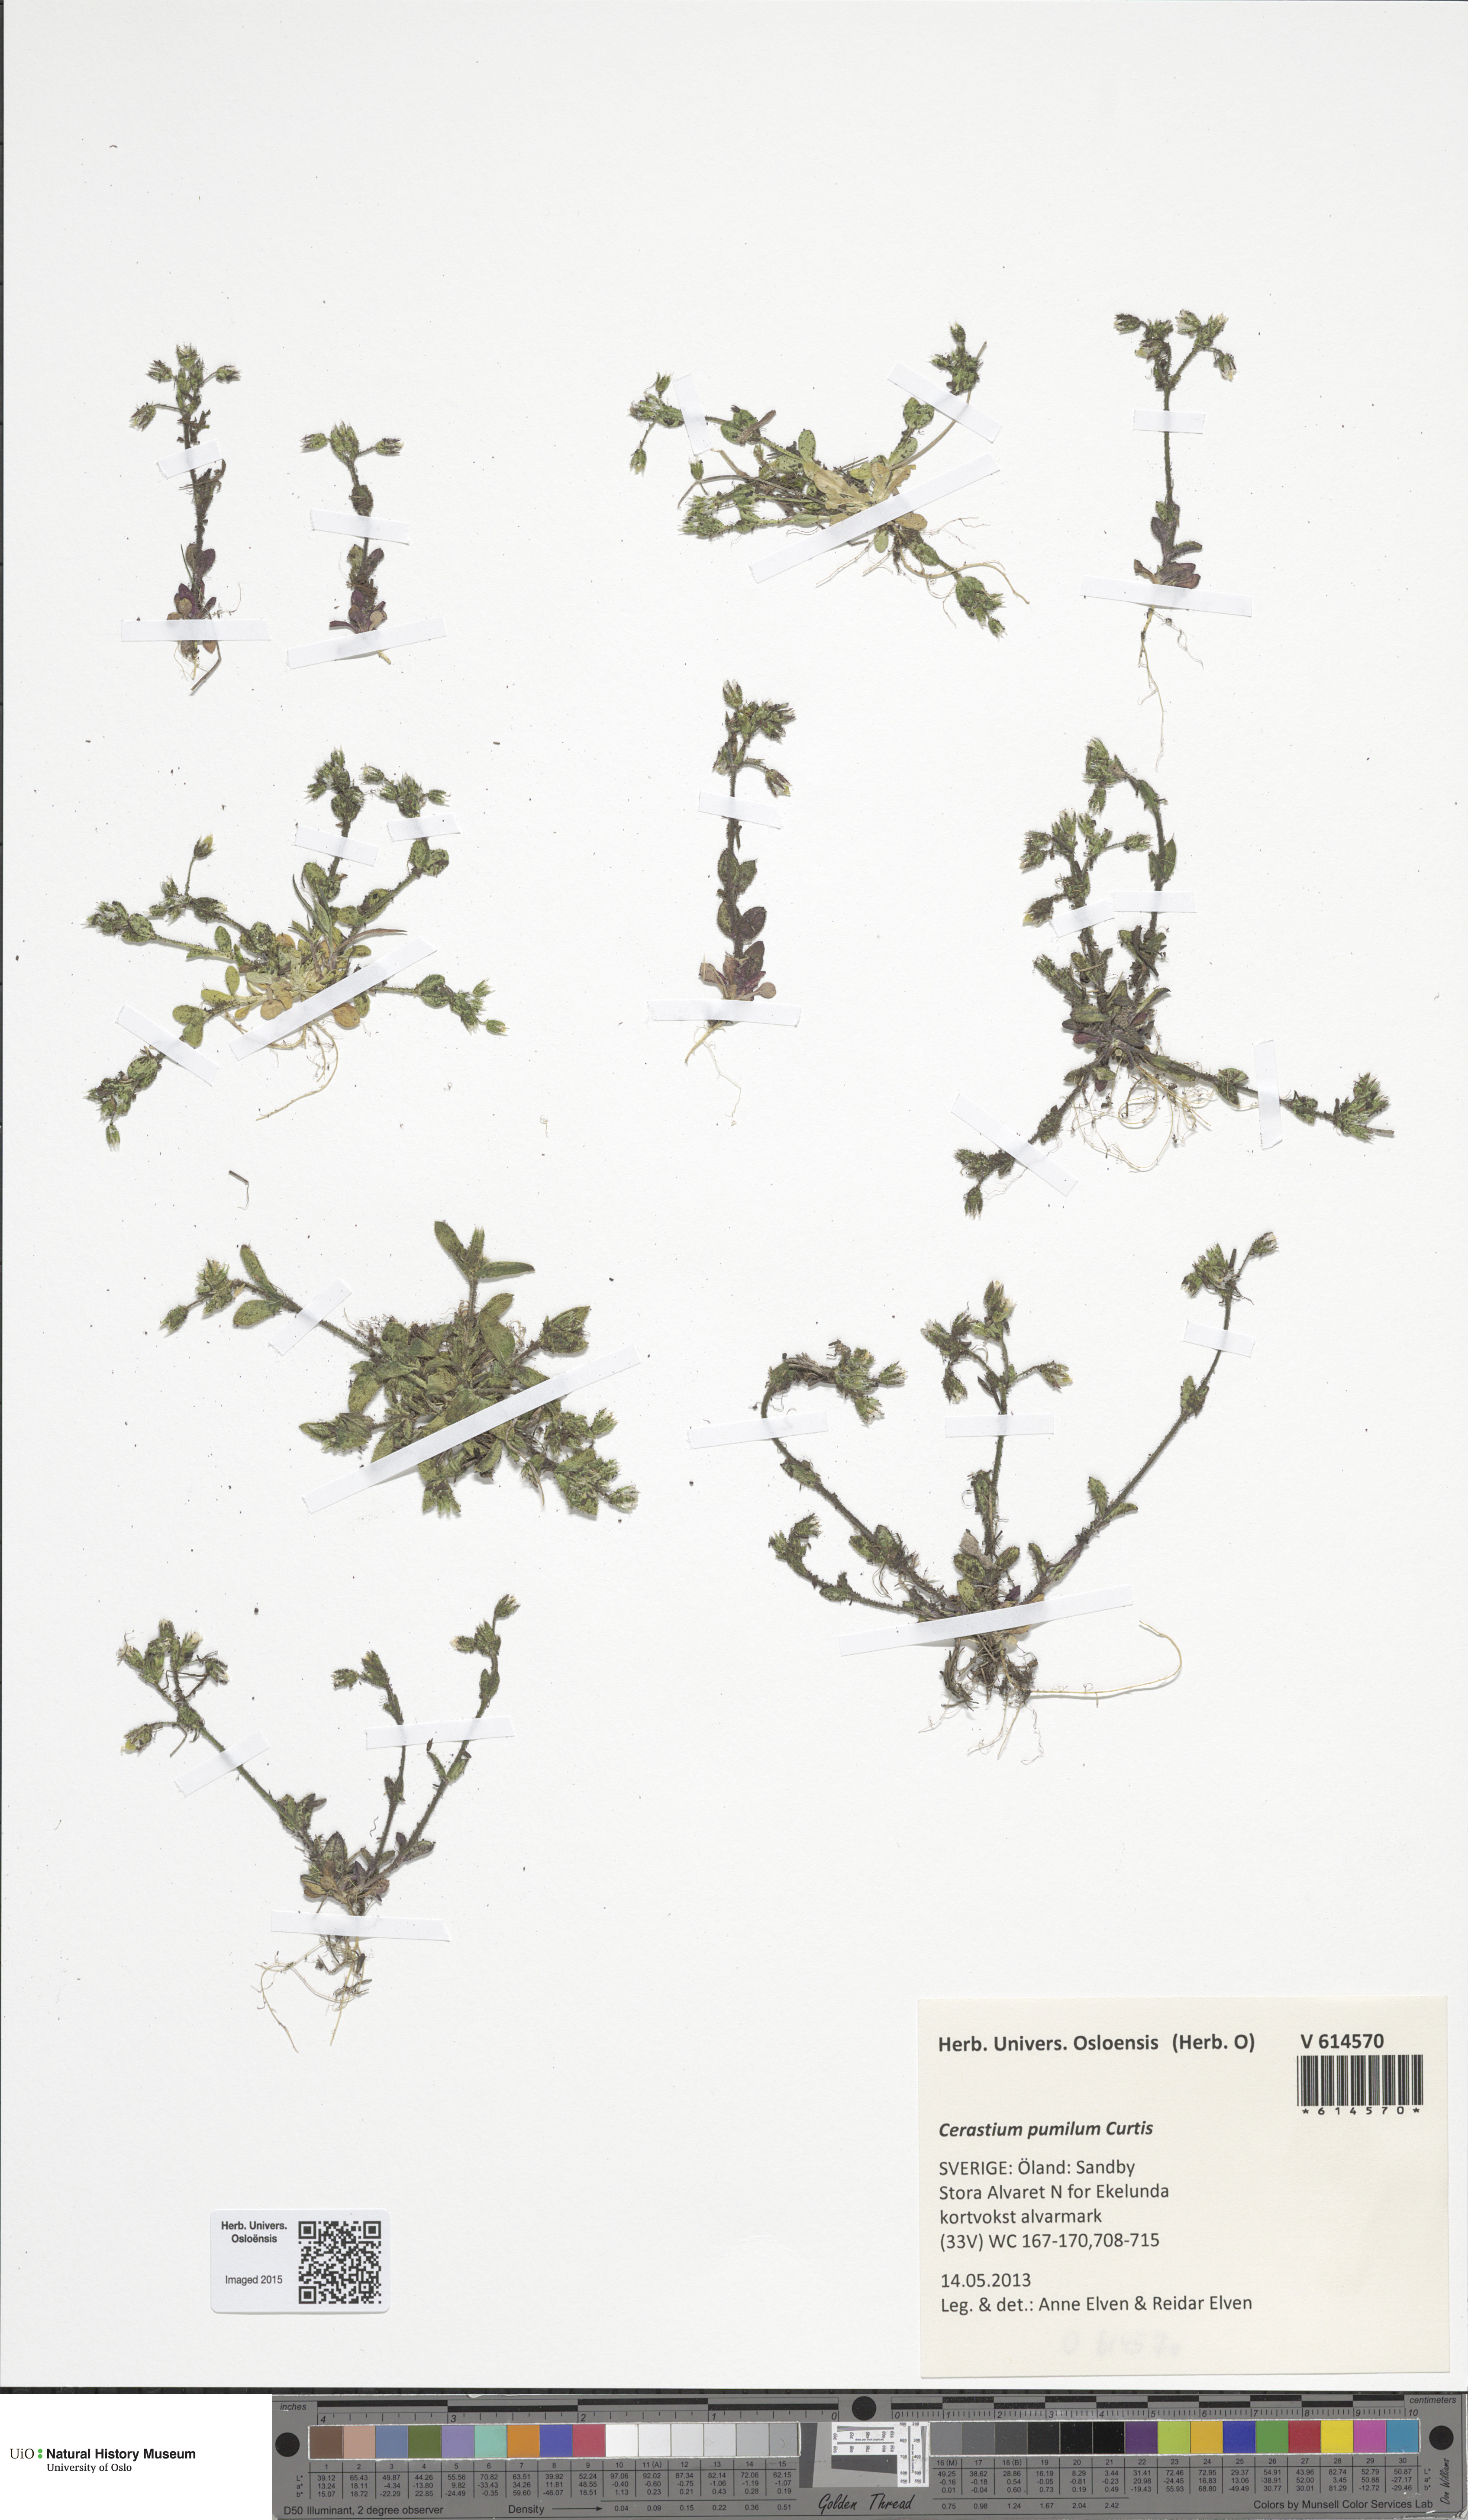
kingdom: Plantae
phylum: Tracheophyta
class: Magnoliopsida
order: Caryophyllales
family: Caryophyllaceae
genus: Cerastium
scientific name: Cerastium pumilum
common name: Dwarf mouse-ear
